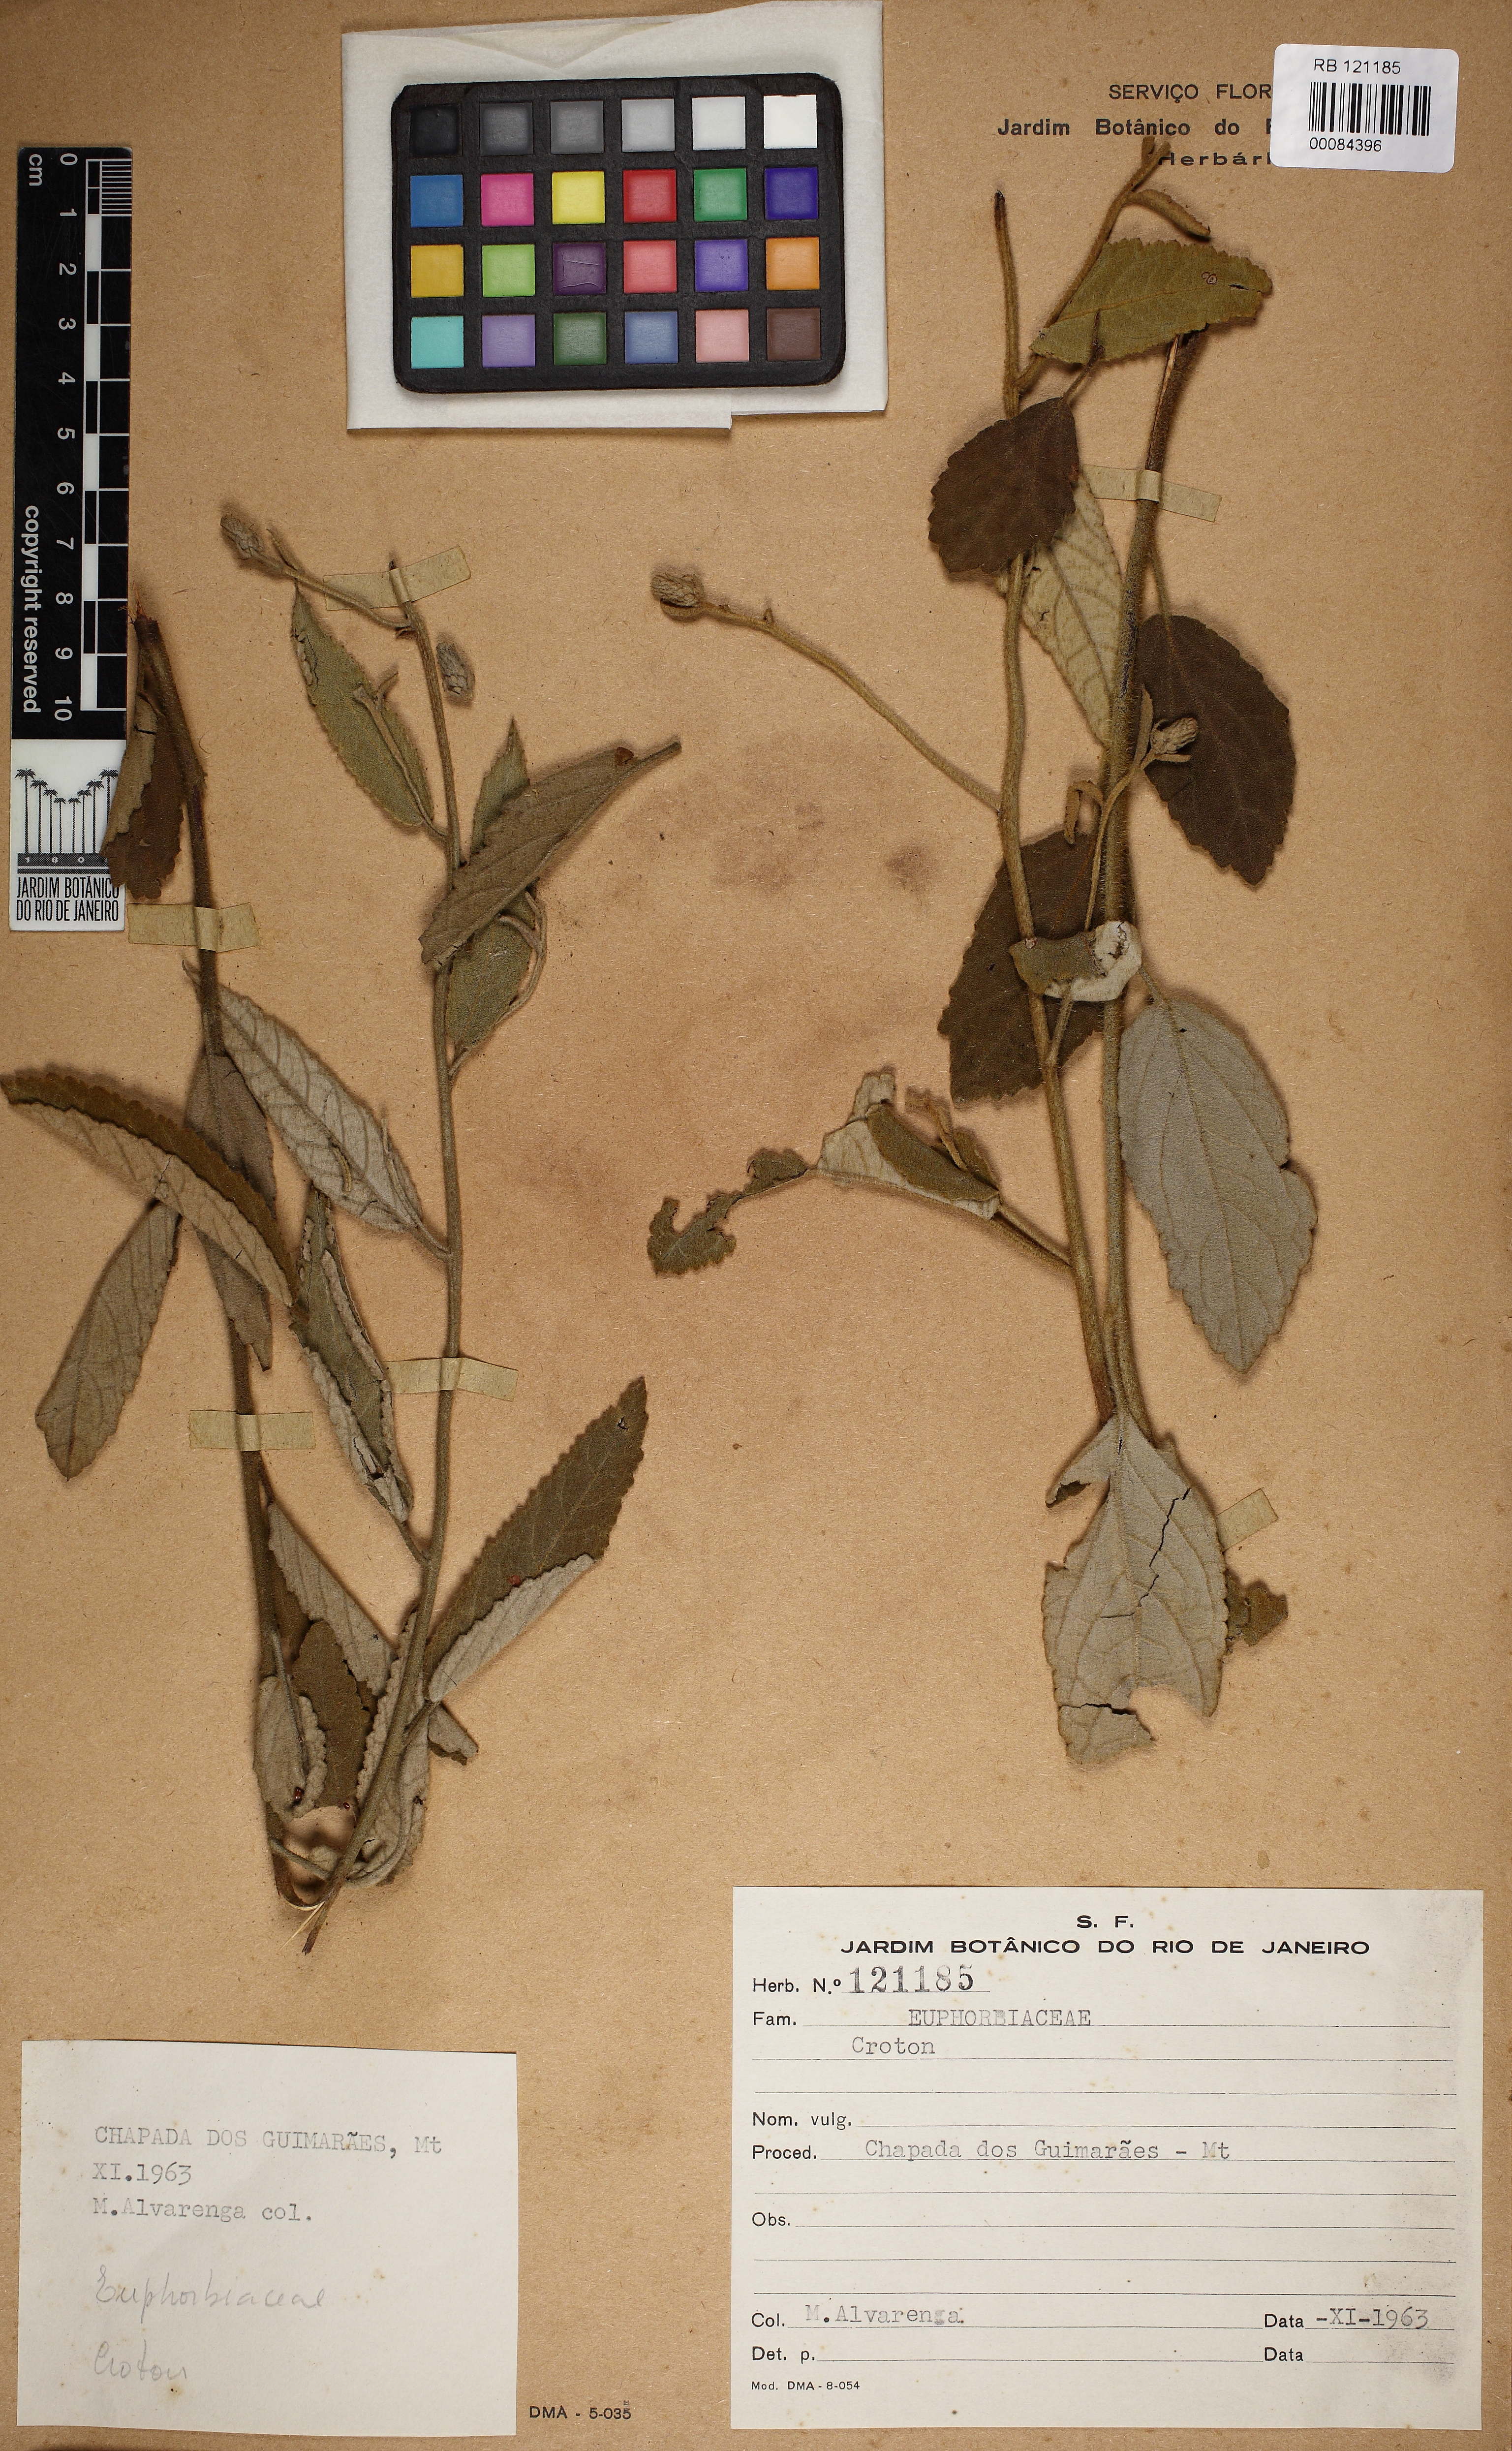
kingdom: Plantae
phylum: Tracheophyta
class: Magnoliopsida
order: Malpighiales
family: Euphorbiaceae
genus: Croton
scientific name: Croton spica
